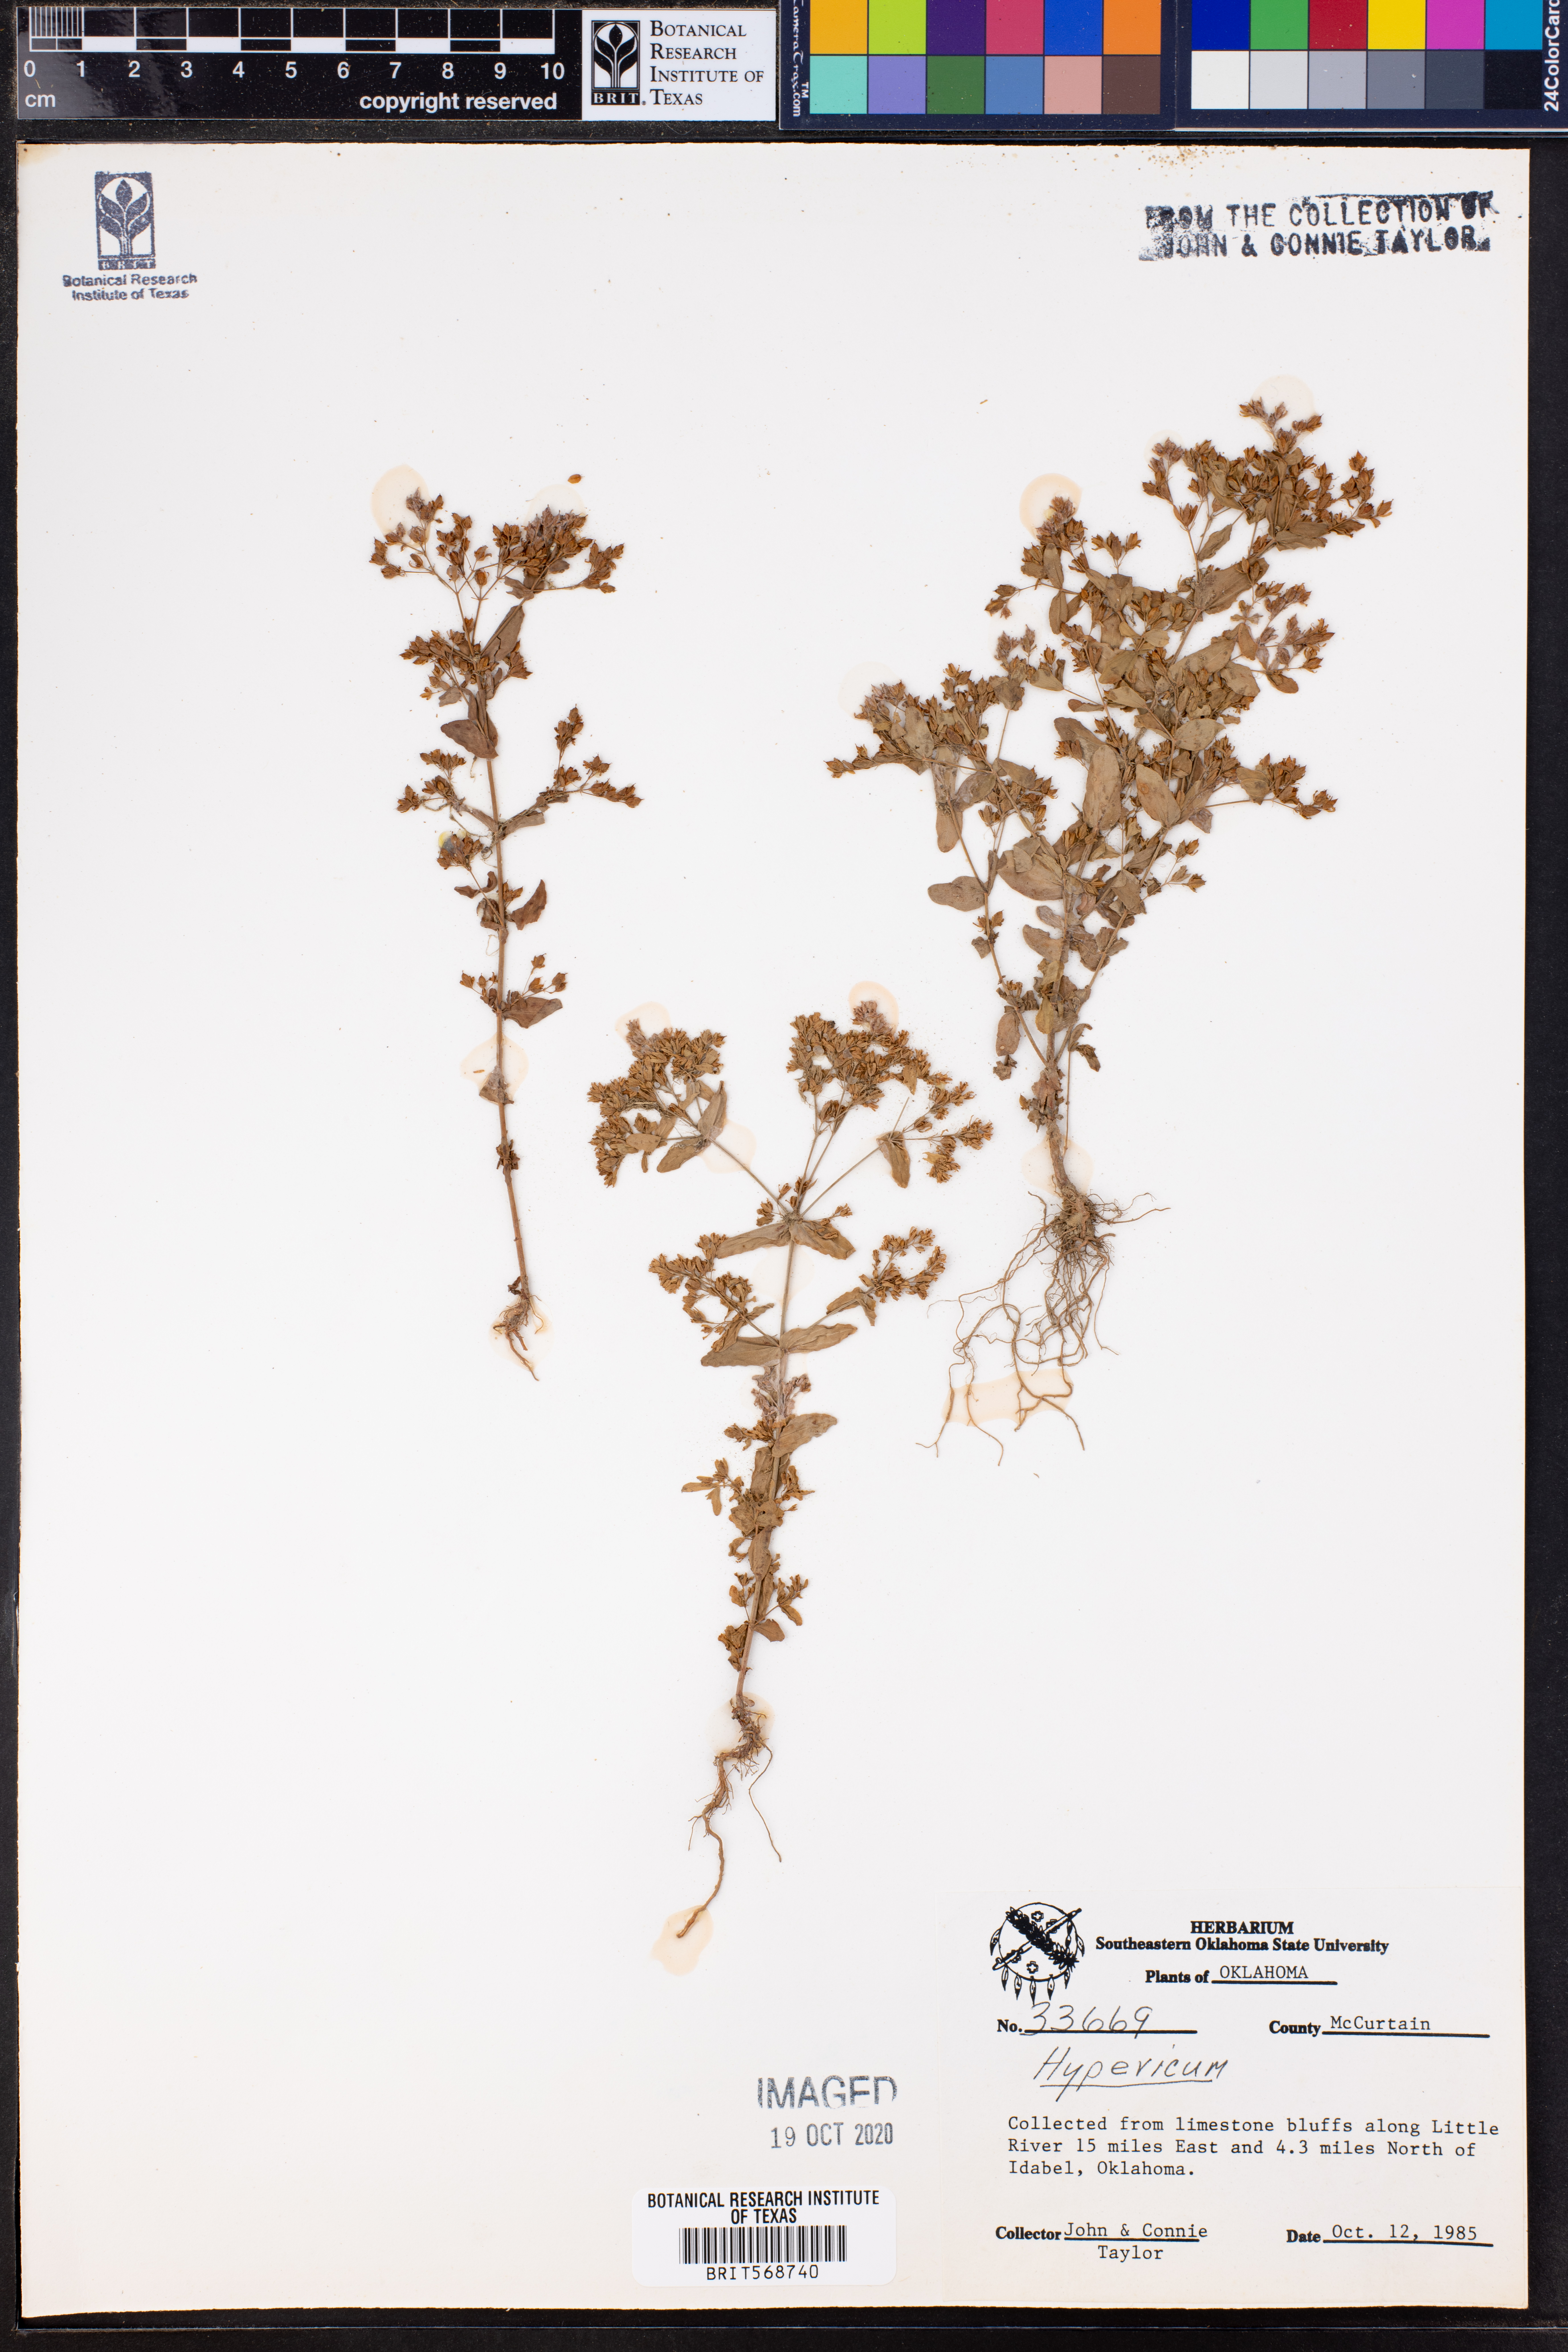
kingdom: Plantae
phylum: Tracheophyta
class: Magnoliopsida
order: Malpighiales
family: Hypericaceae
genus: Hypericum
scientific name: Hypericum
